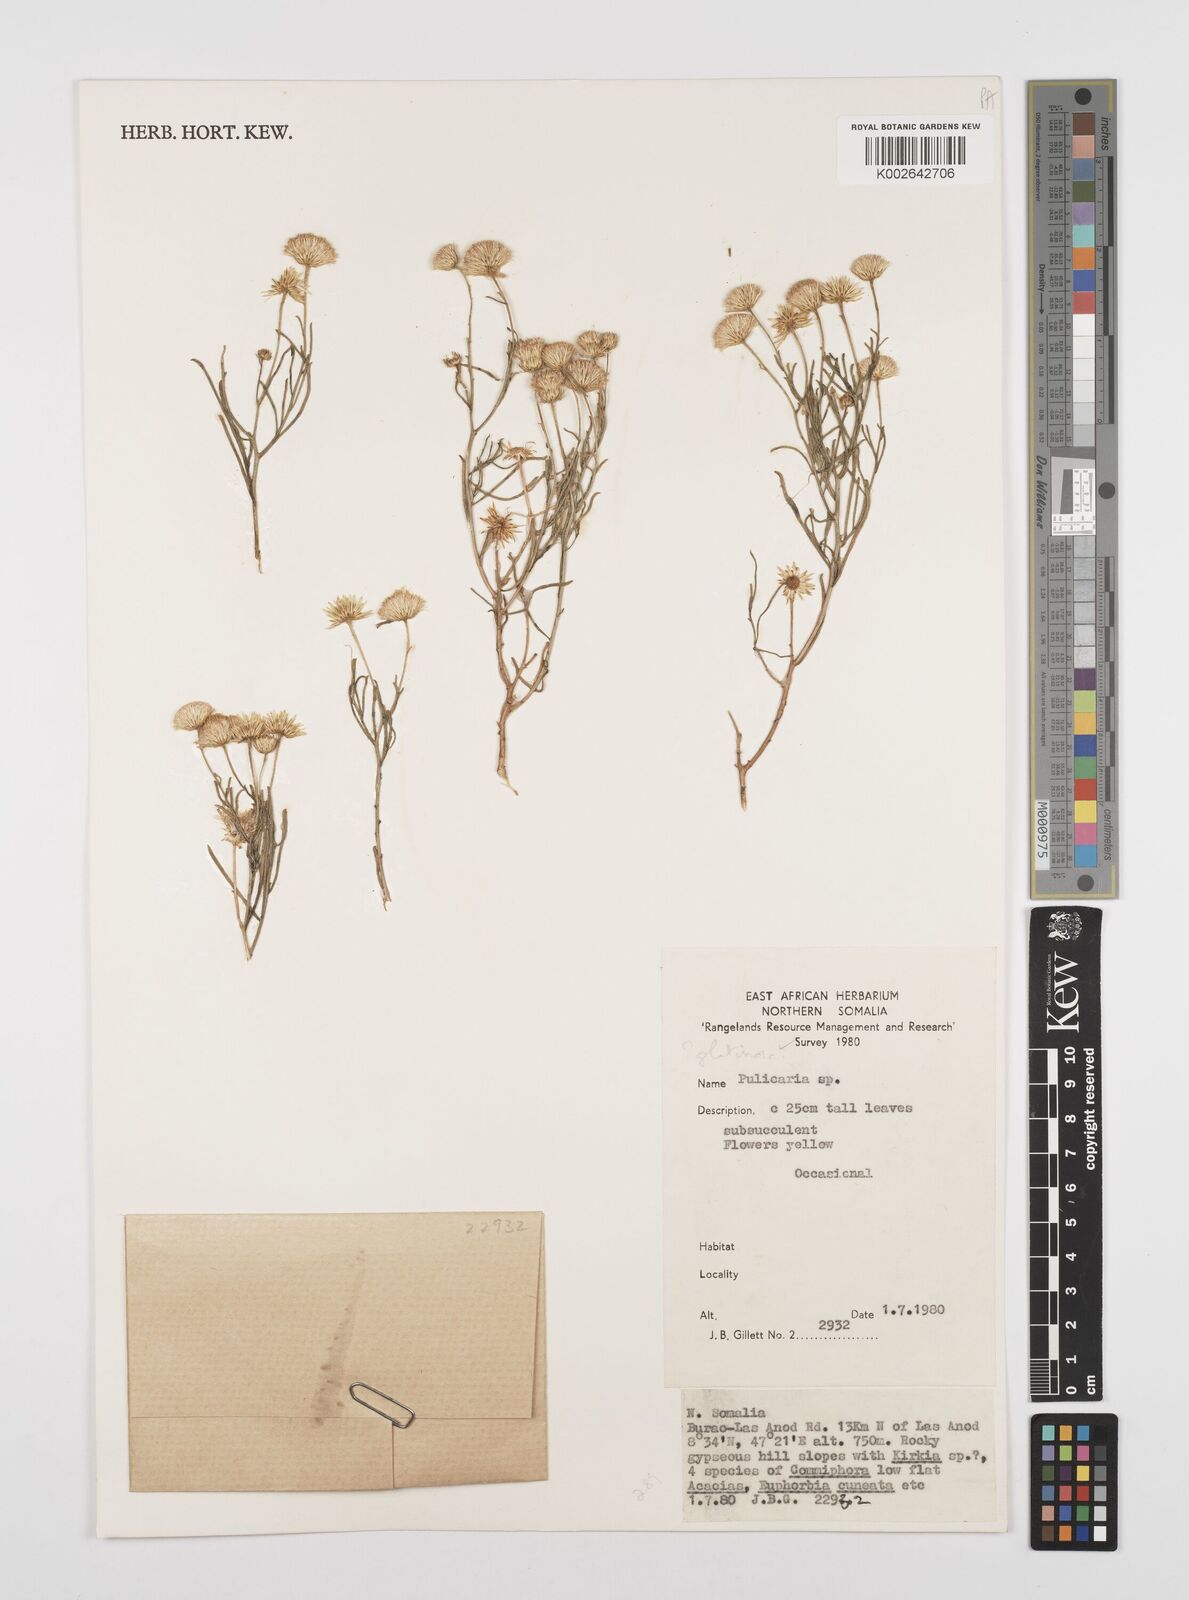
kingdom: Plantae
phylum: Tracheophyta
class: Magnoliopsida
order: Asterales
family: Asteraceae
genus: Pulicaria
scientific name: Pulicaria glutinosa
